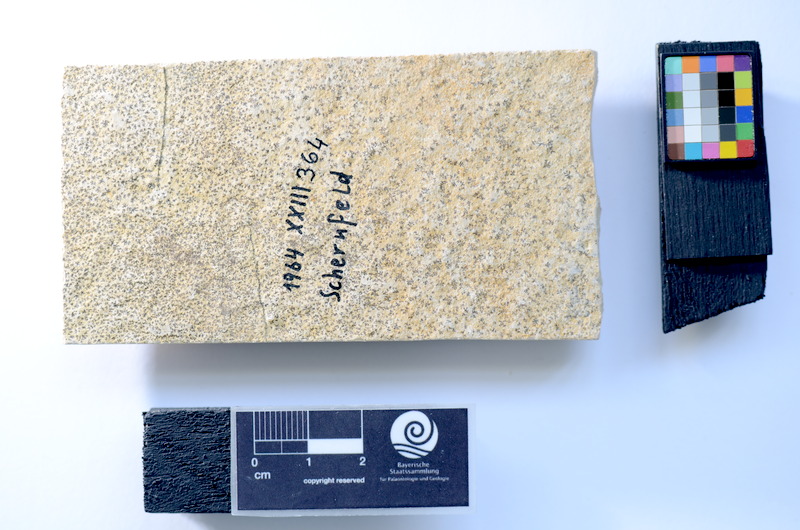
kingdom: Animalia
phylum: Chordata
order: Salmoniformes
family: Orthogonikleithridae
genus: Leptolepides
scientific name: Leptolepides sprattiformis
